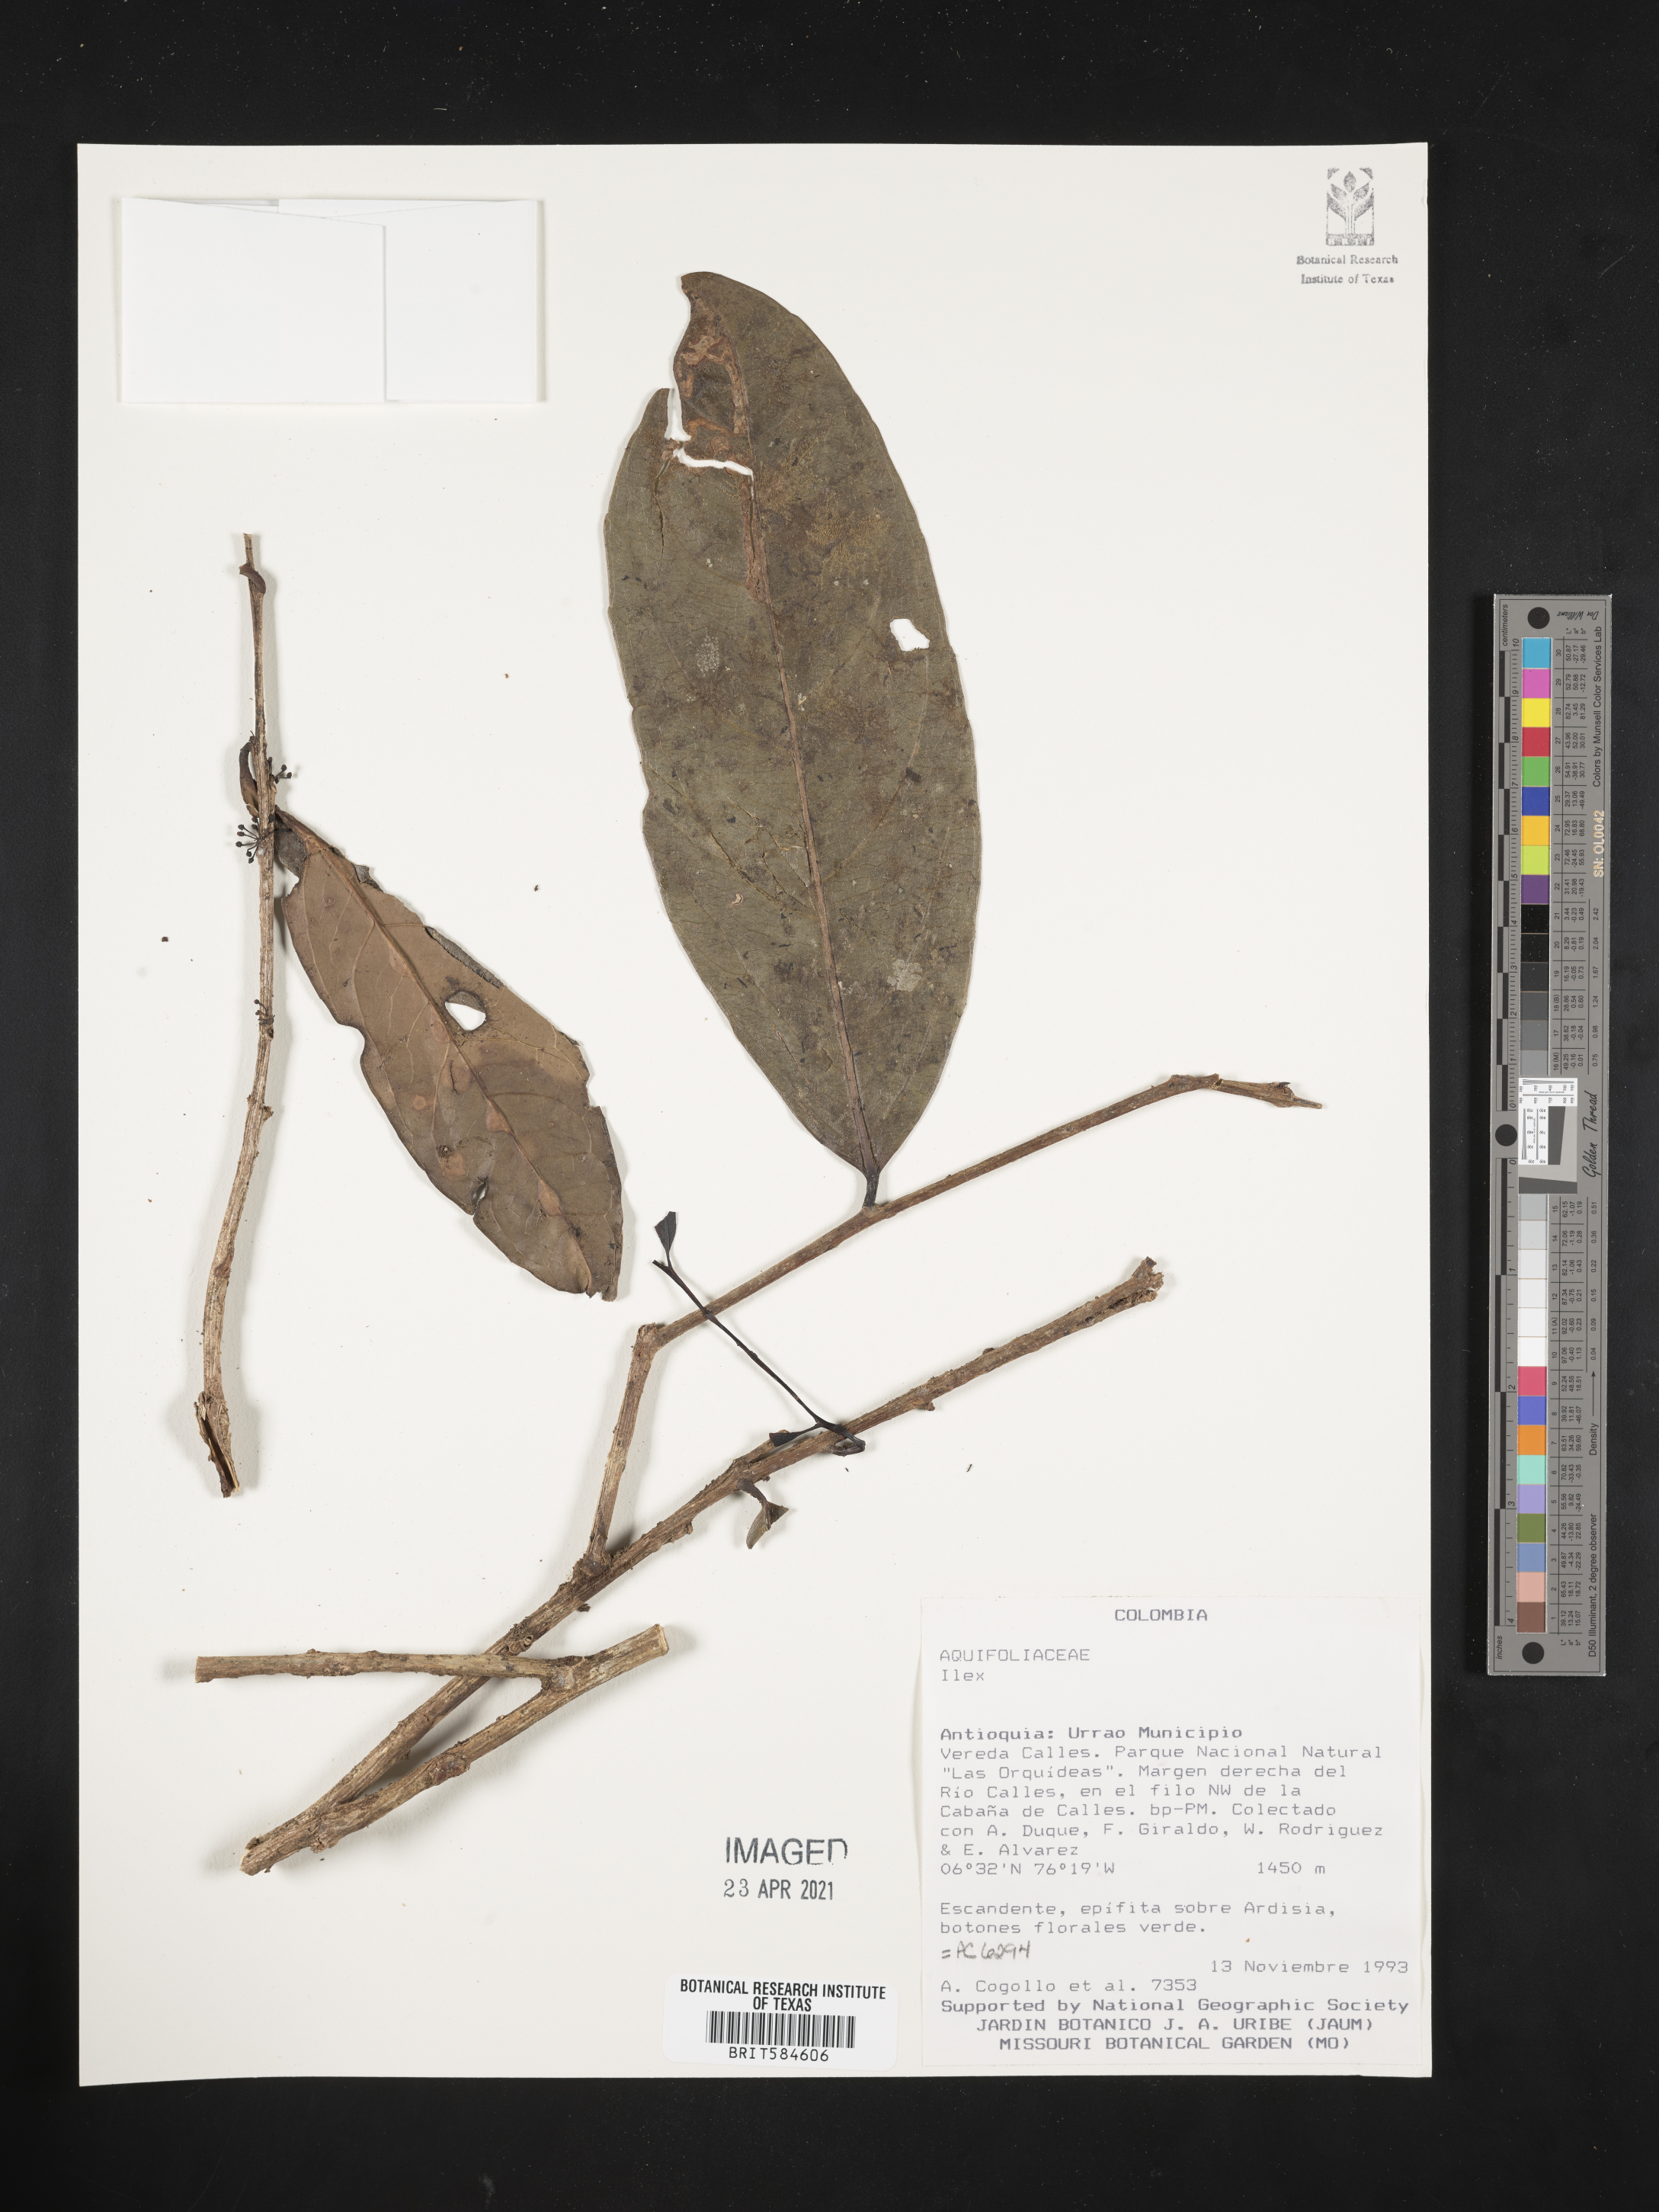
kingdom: Plantae
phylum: Tracheophyta
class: Magnoliopsida
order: Aquifoliales
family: Aquifoliaceae
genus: Ilex
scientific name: Ilex
